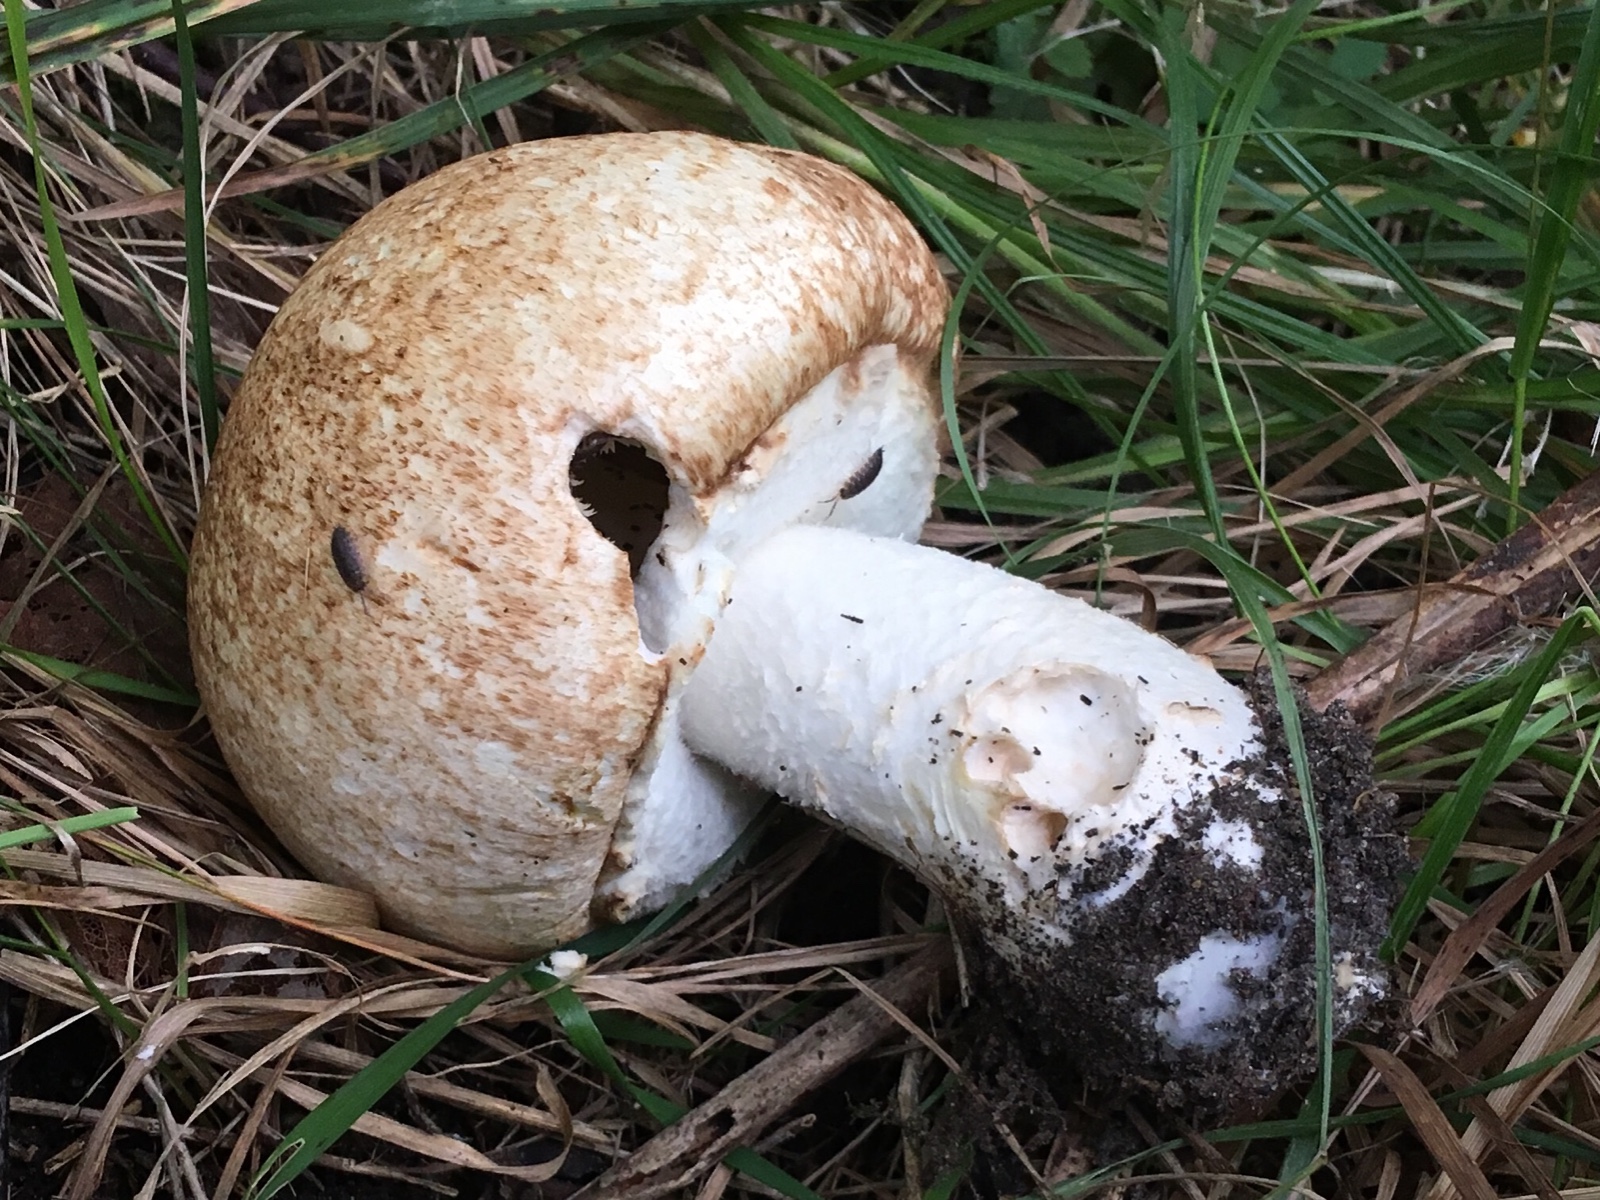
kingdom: Fungi
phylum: Basidiomycota
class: Agaricomycetes
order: Agaricales
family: Agaricaceae
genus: Agaricus
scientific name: Agaricus augustus
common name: prægtig champignon
